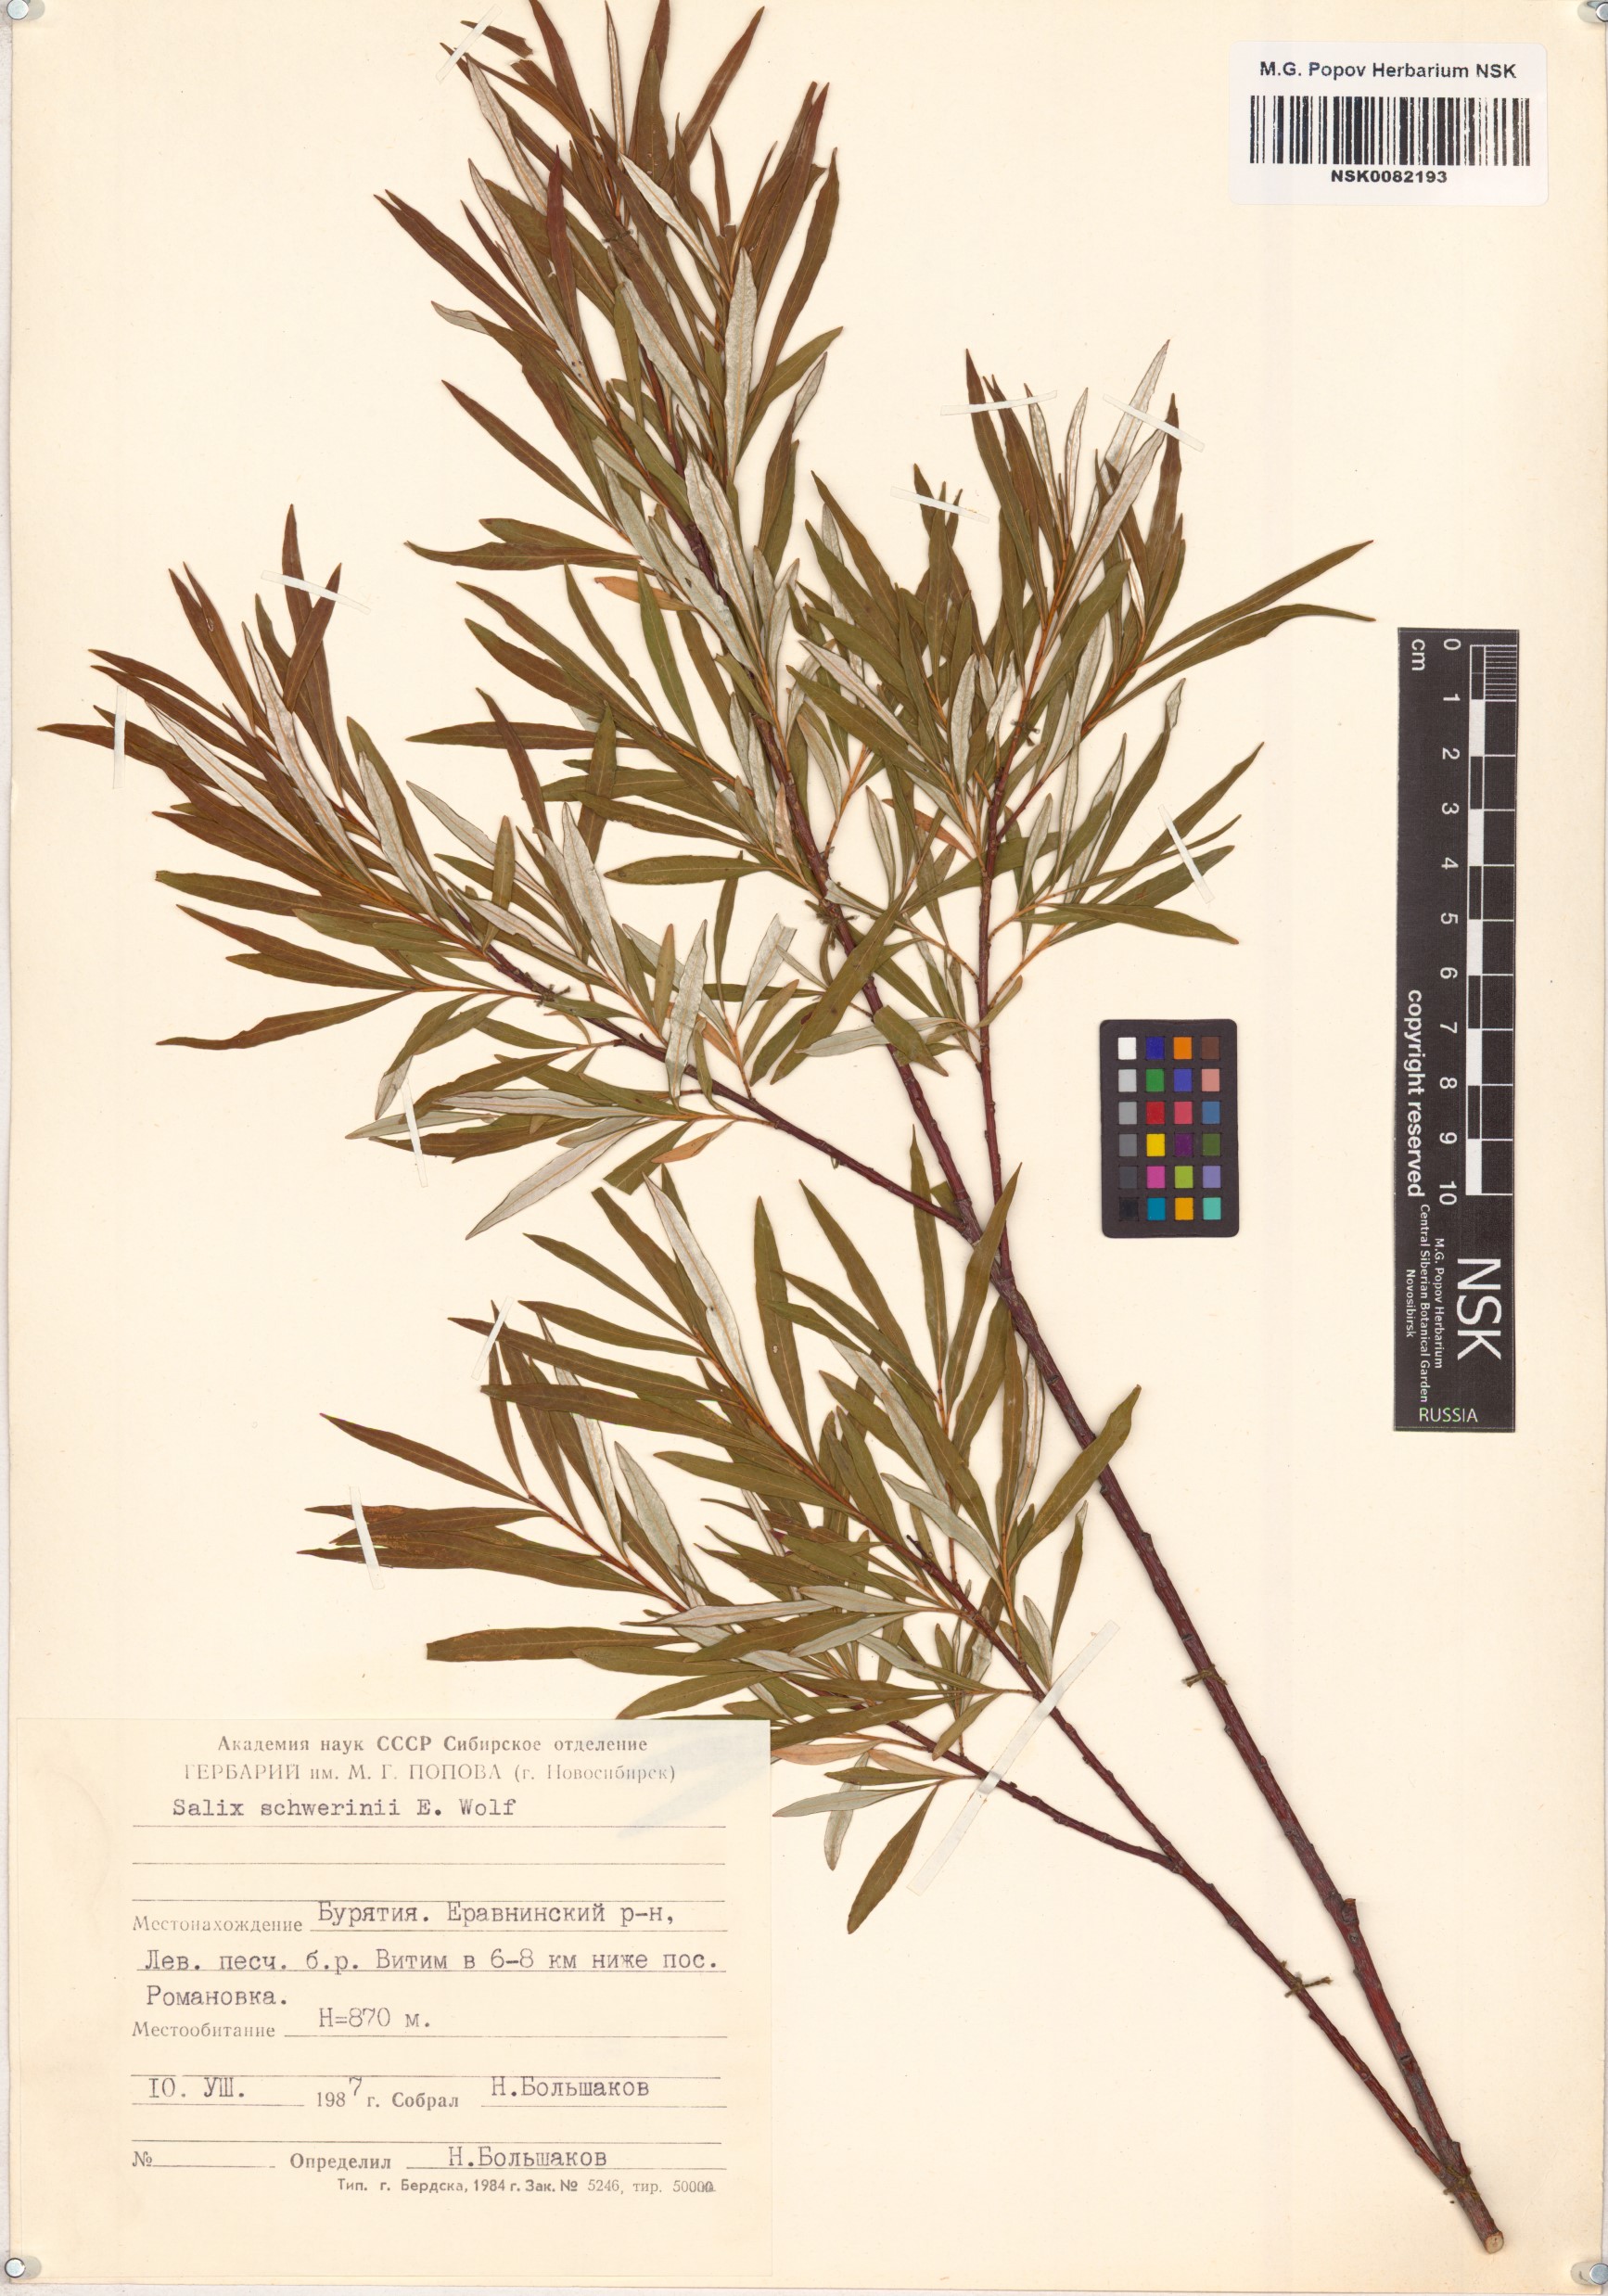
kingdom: Plantae
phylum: Tracheophyta
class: Magnoliopsida
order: Malpighiales
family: Salicaceae
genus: Salix
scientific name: Salix schwerinii
